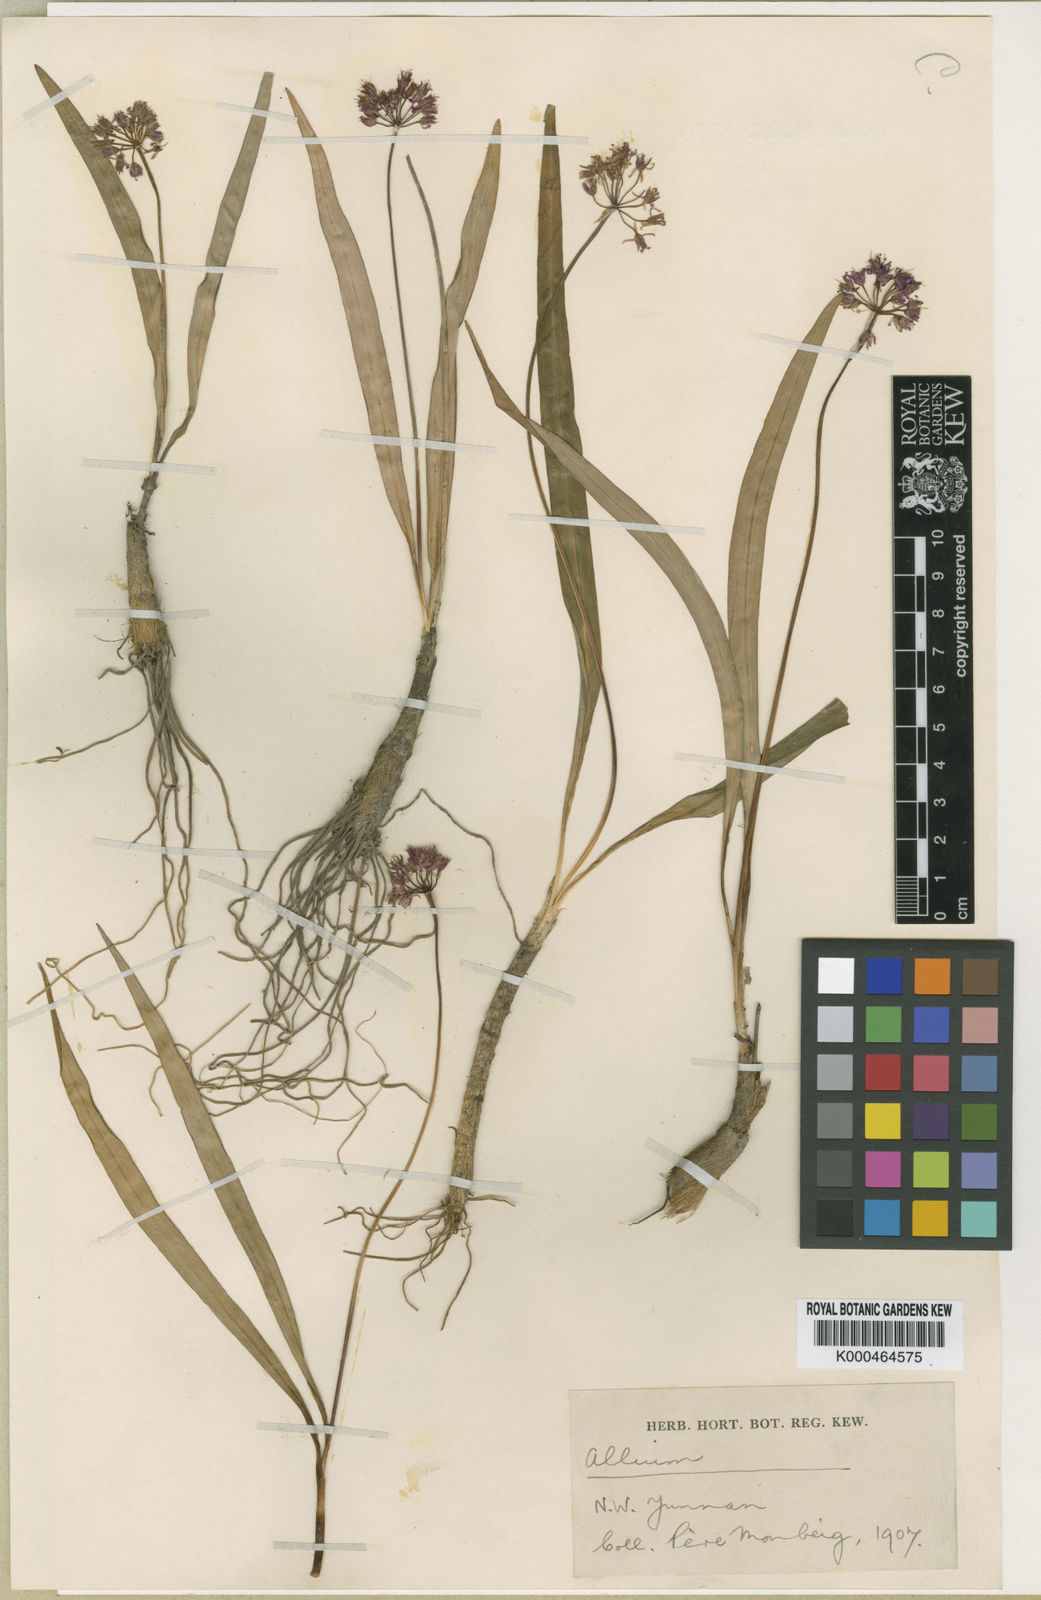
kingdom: Plantae
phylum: Tracheophyta
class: Liliopsida
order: Asparagales
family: Amaryllidaceae
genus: Allium
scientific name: Allium prattii
